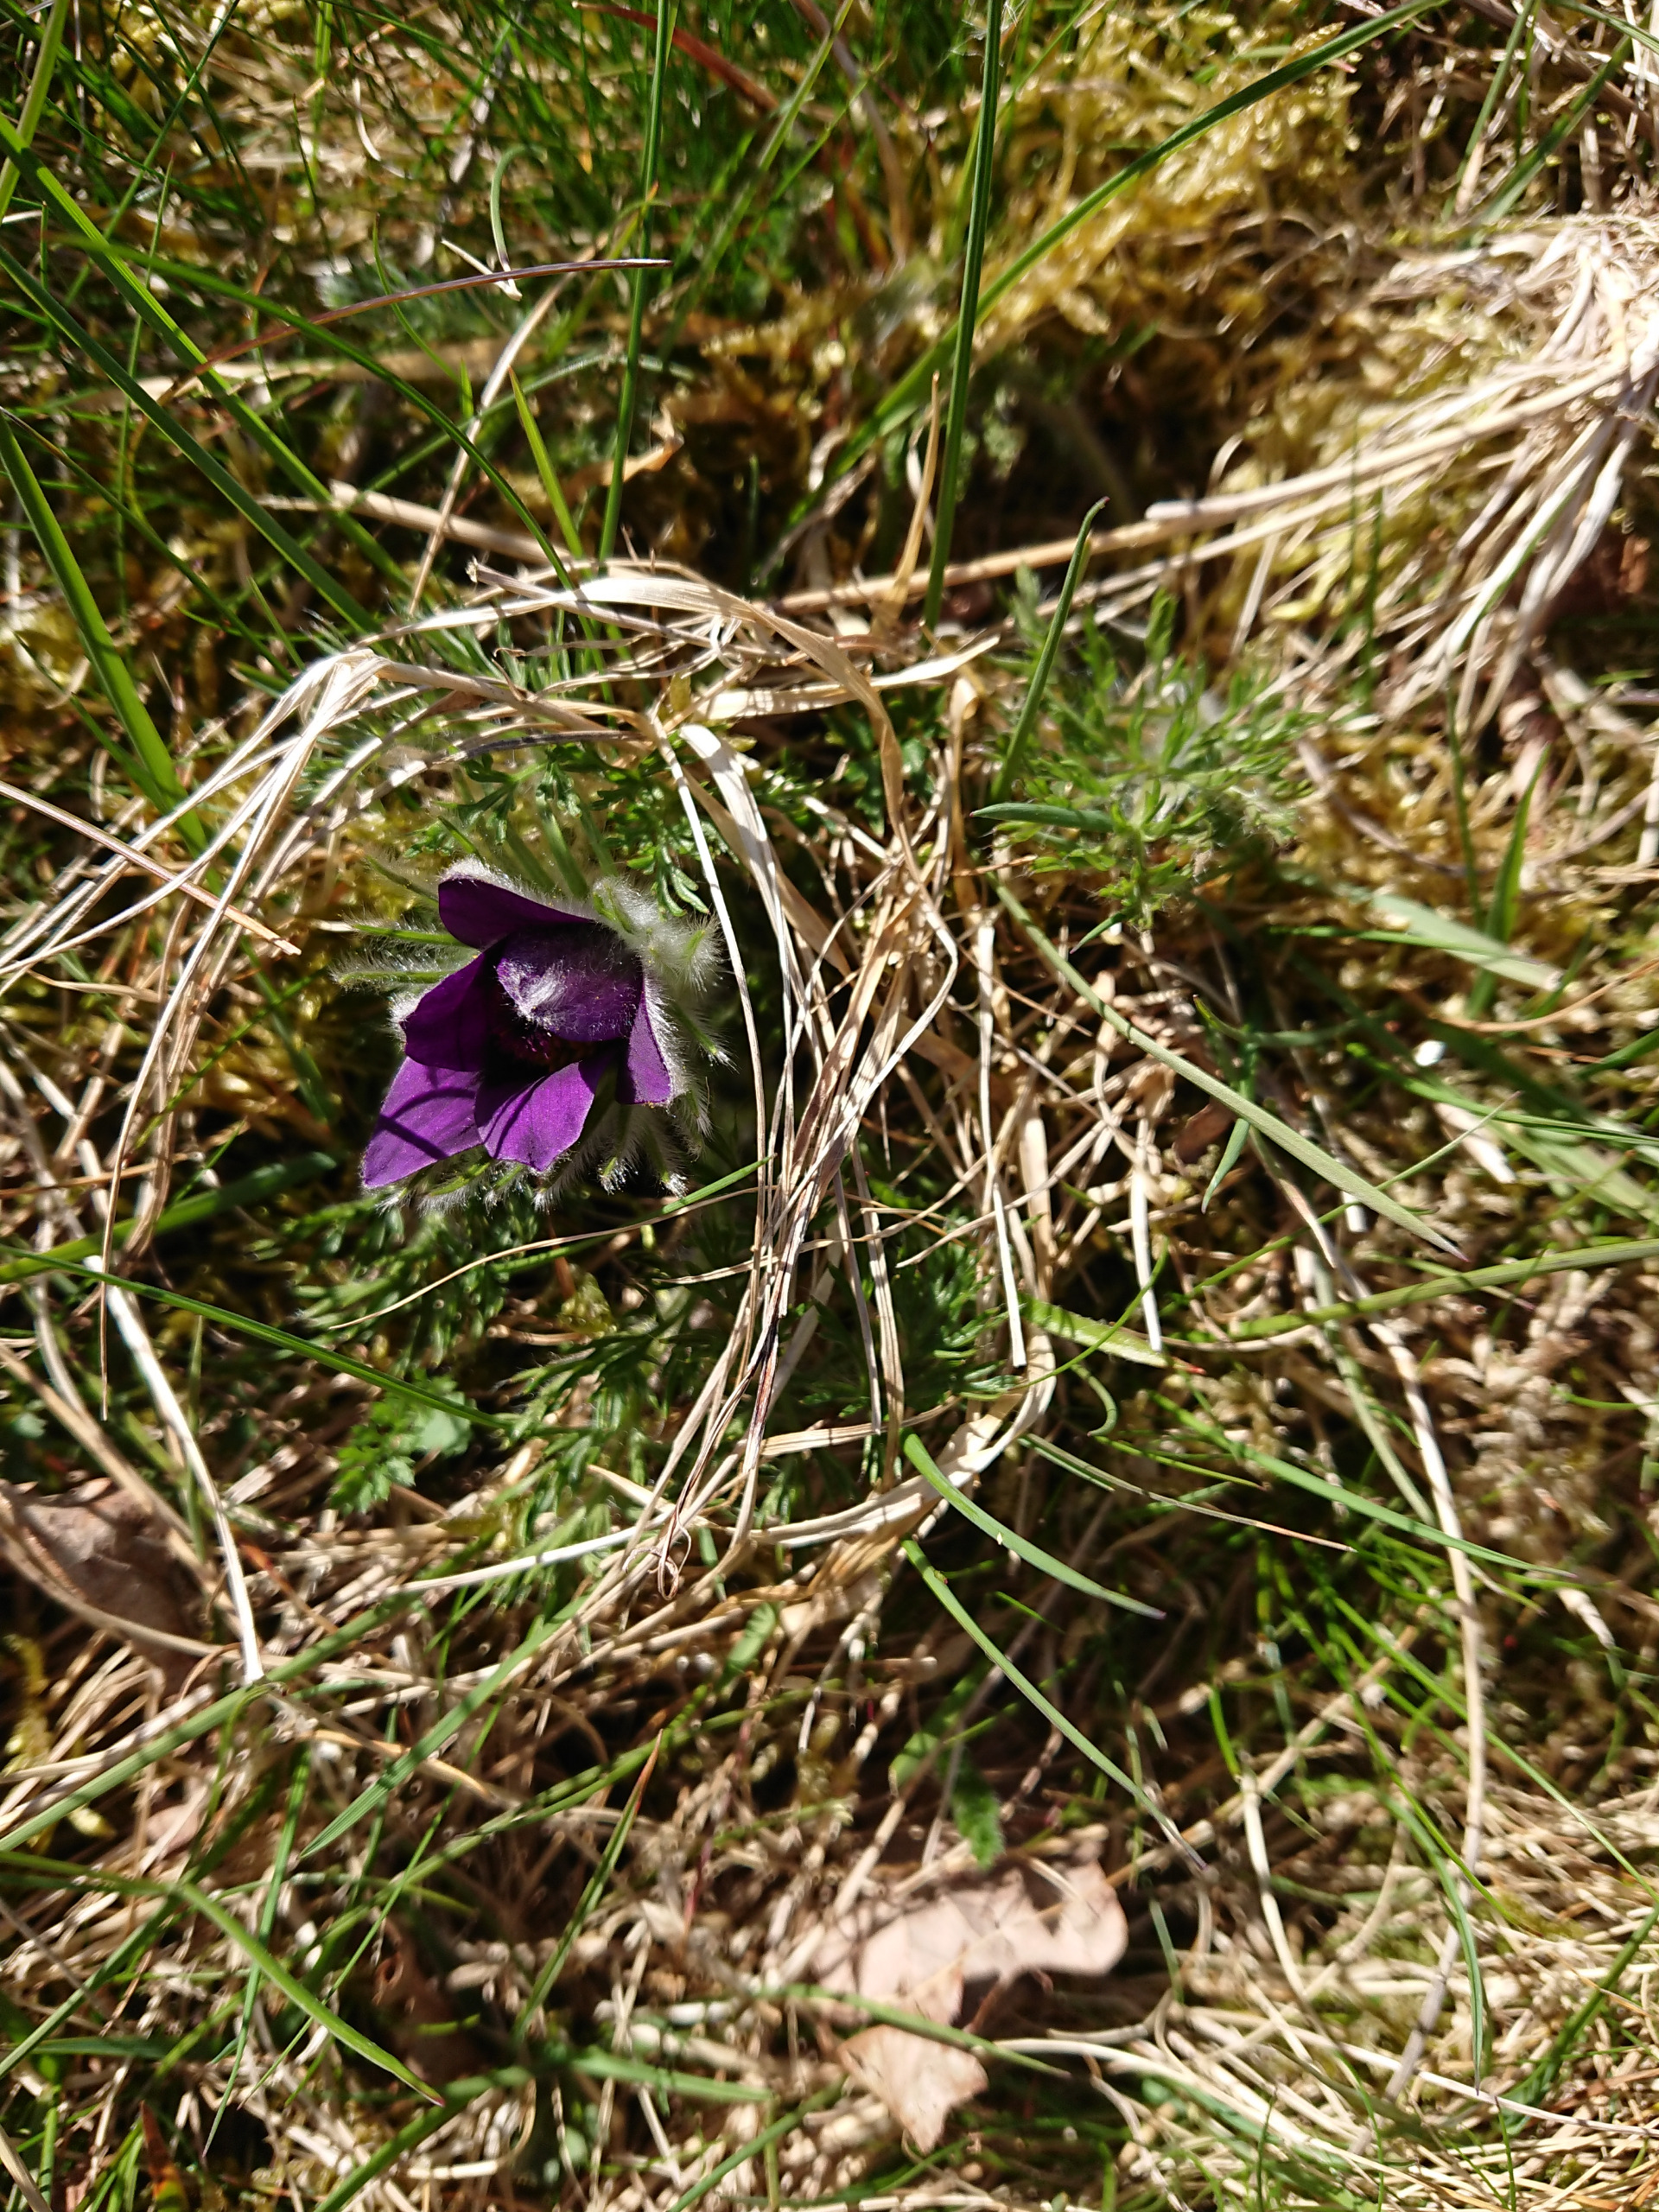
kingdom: Plantae
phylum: Tracheophyta
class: Magnoliopsida
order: Ranunculales
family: Ranunculaceae
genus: Pulsatilla
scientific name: Pulsatilla vulgaris
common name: Opret kobjælde
